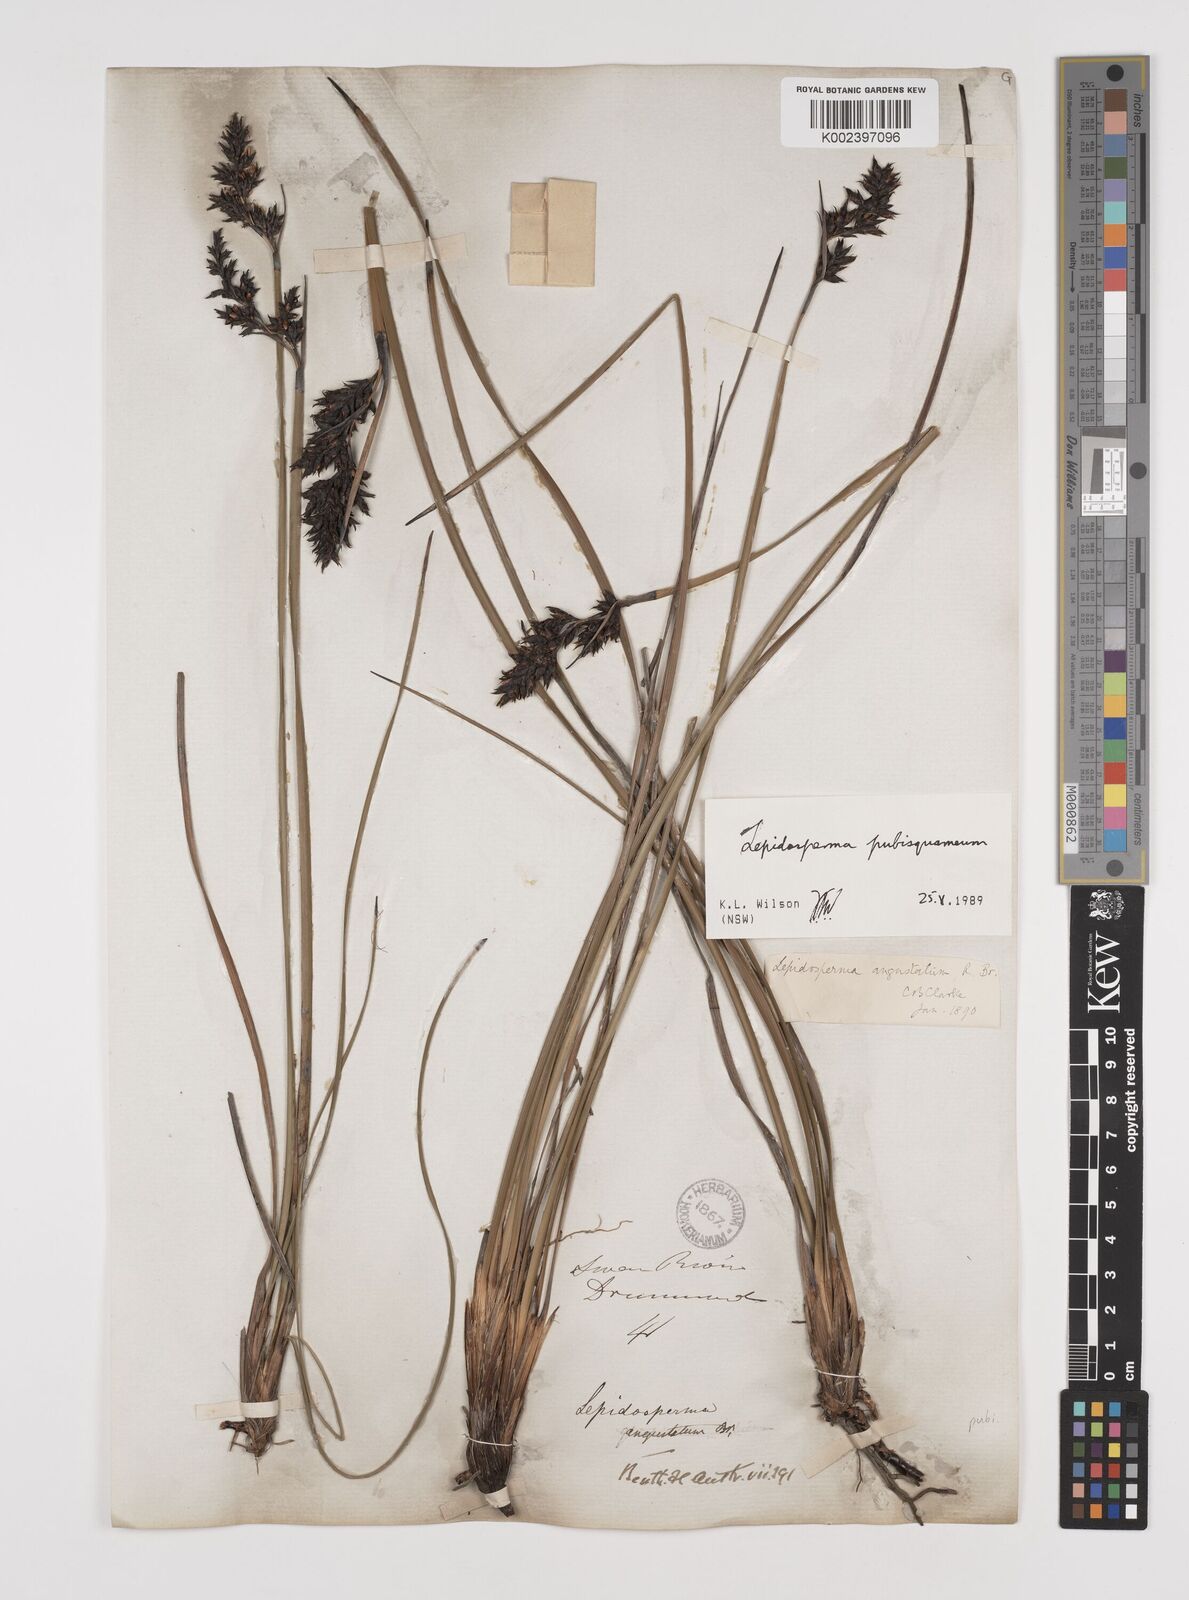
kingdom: Plantae
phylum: Tracheophyta
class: Liliopsida
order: Poales
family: Cyperaceae
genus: Lepidosperma
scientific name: Lepidosperma pubisquameum
